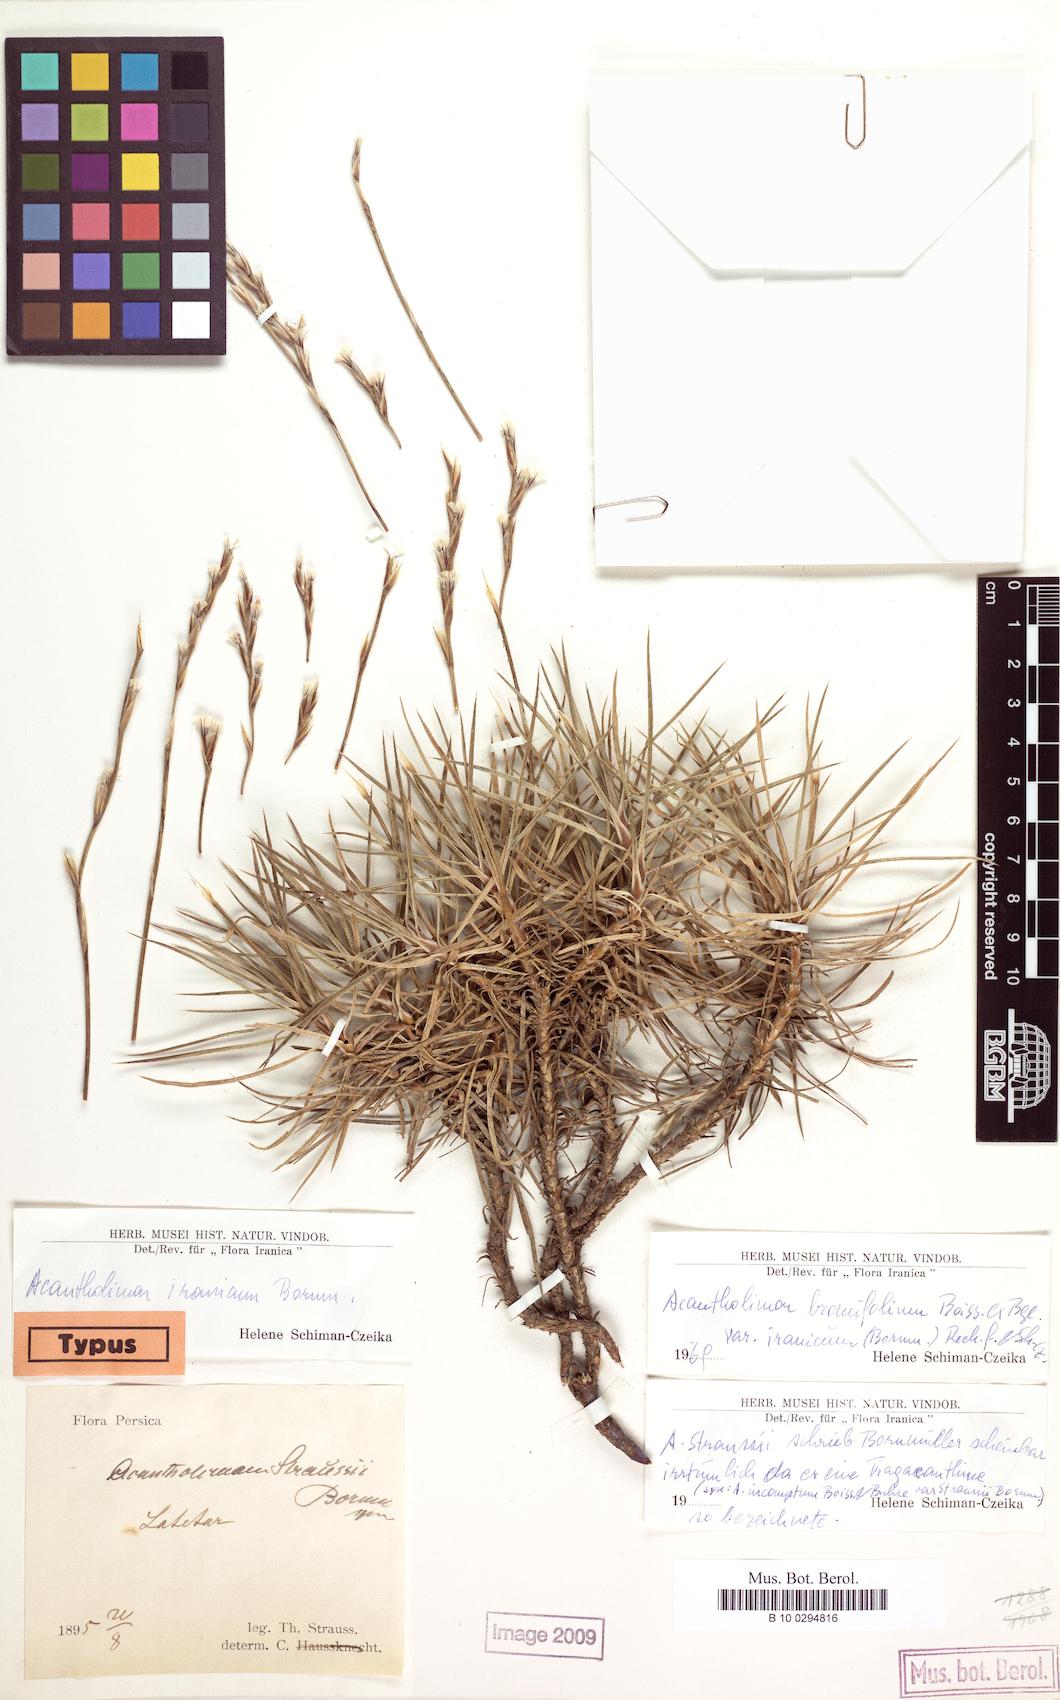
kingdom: Plantae
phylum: Tracheophyta
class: Magnoliopsida
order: Caryophyllales
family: Plumbaginaceae
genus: Acantholimon
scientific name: Acantholimon bromifolium
